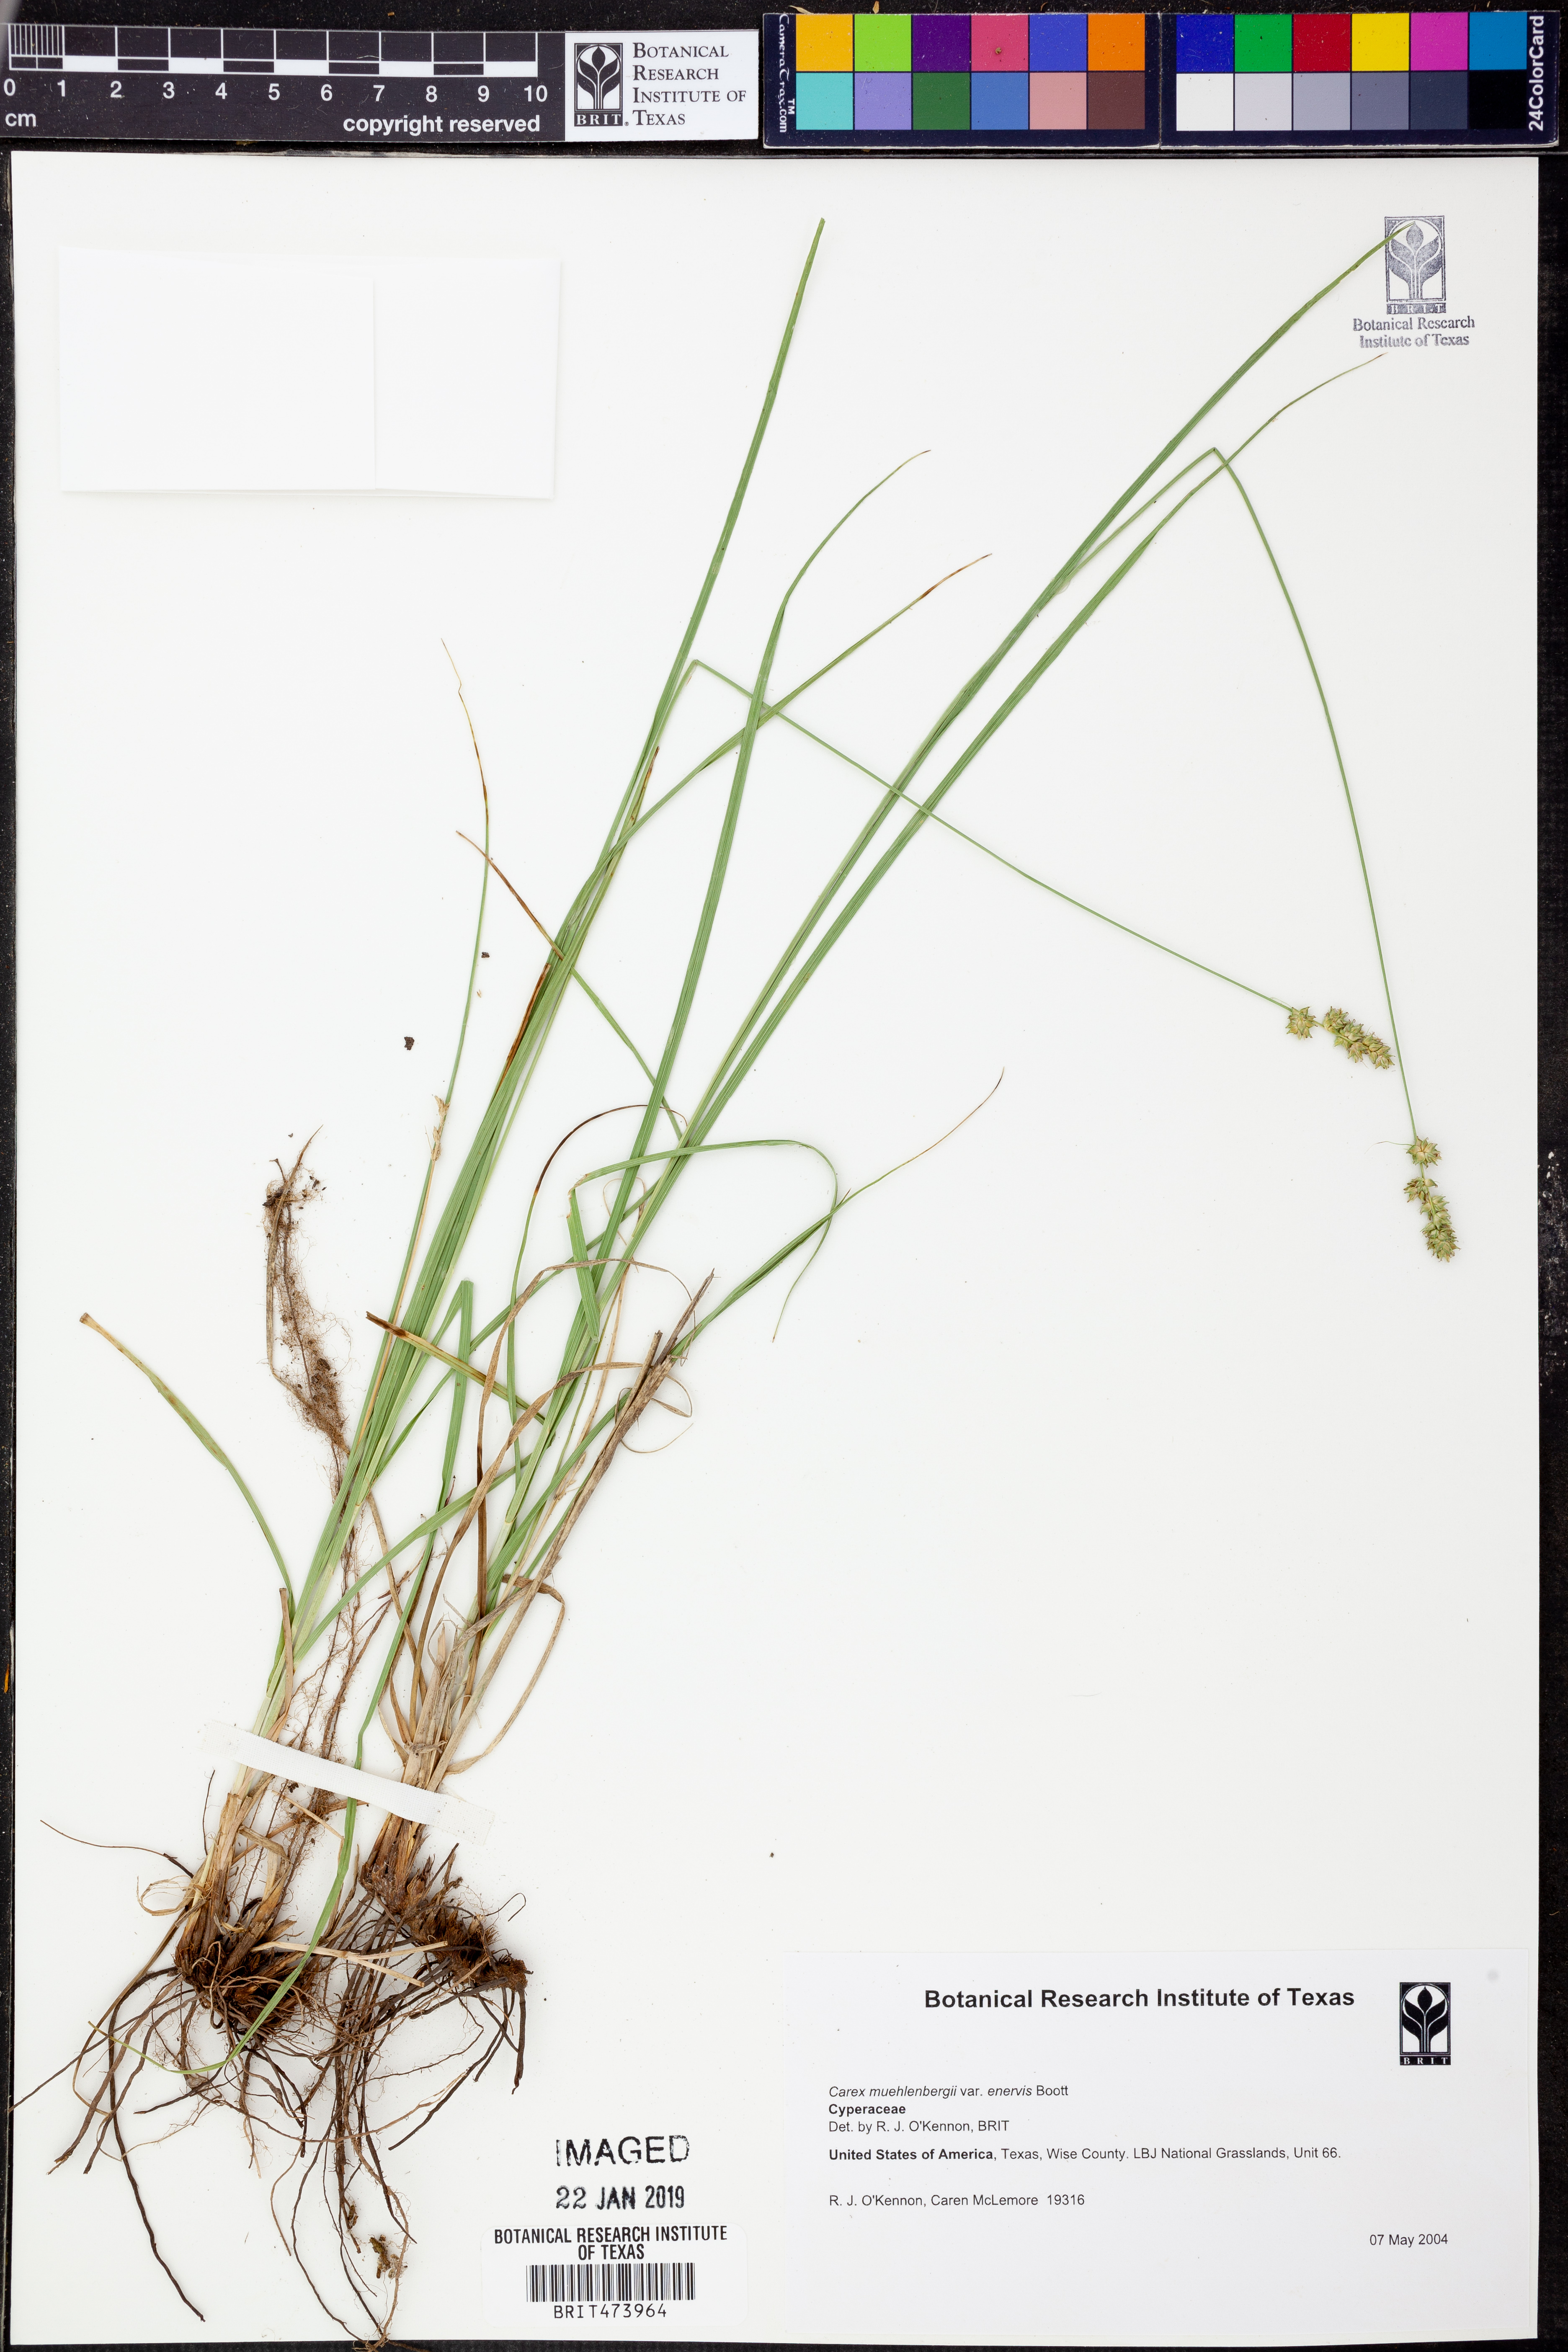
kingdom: Plantae
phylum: Tracheophyta
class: Liliopsida
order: Poales
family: Cyperaceae
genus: Carex
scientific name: Carex muehlenbergii
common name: Muhlenberg's bracted sedge
